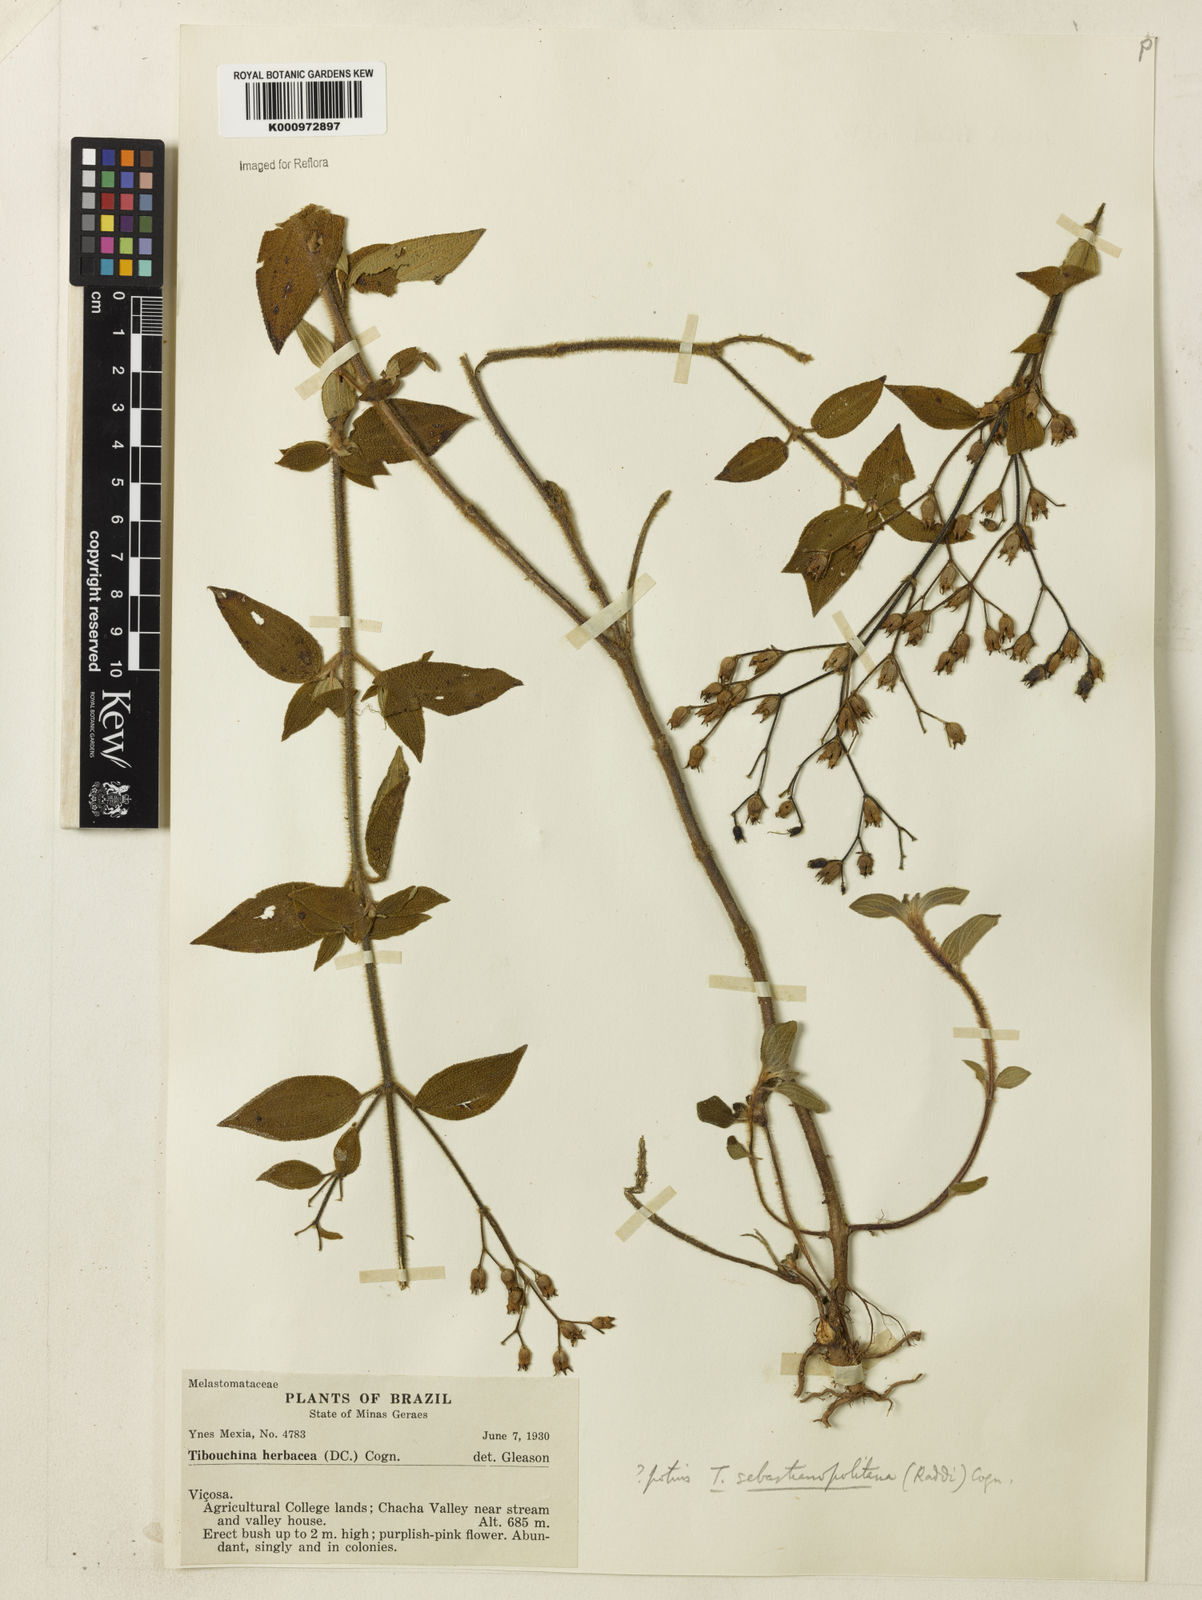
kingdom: Plantae
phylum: Tracheophyta
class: Magnoliopsida
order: Myrtales
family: Melastomataceae
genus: Chaetogastra
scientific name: Chaetogastra sebastianopolitana
